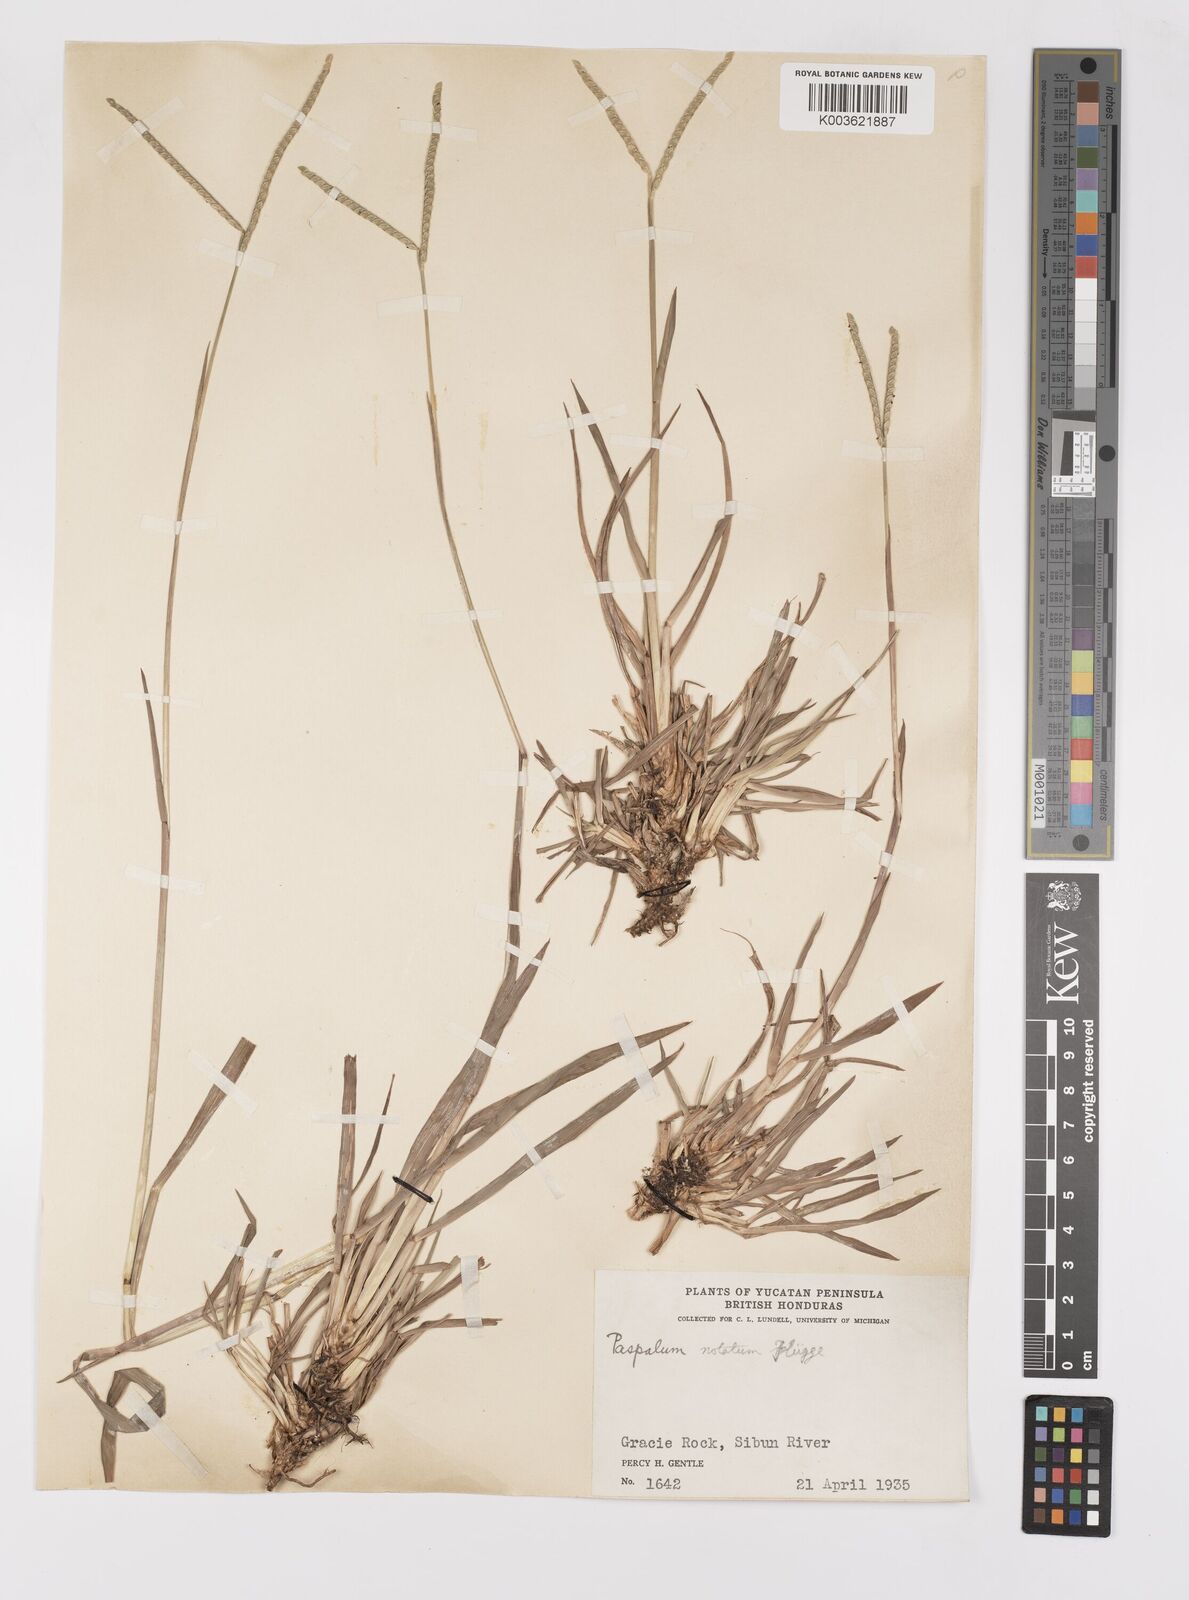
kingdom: Plantae
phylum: Tracheophyta
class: Liliopsida
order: Poales
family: Poaceae
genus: Paspalum
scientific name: Paspalum minus
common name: Matted paspalum
